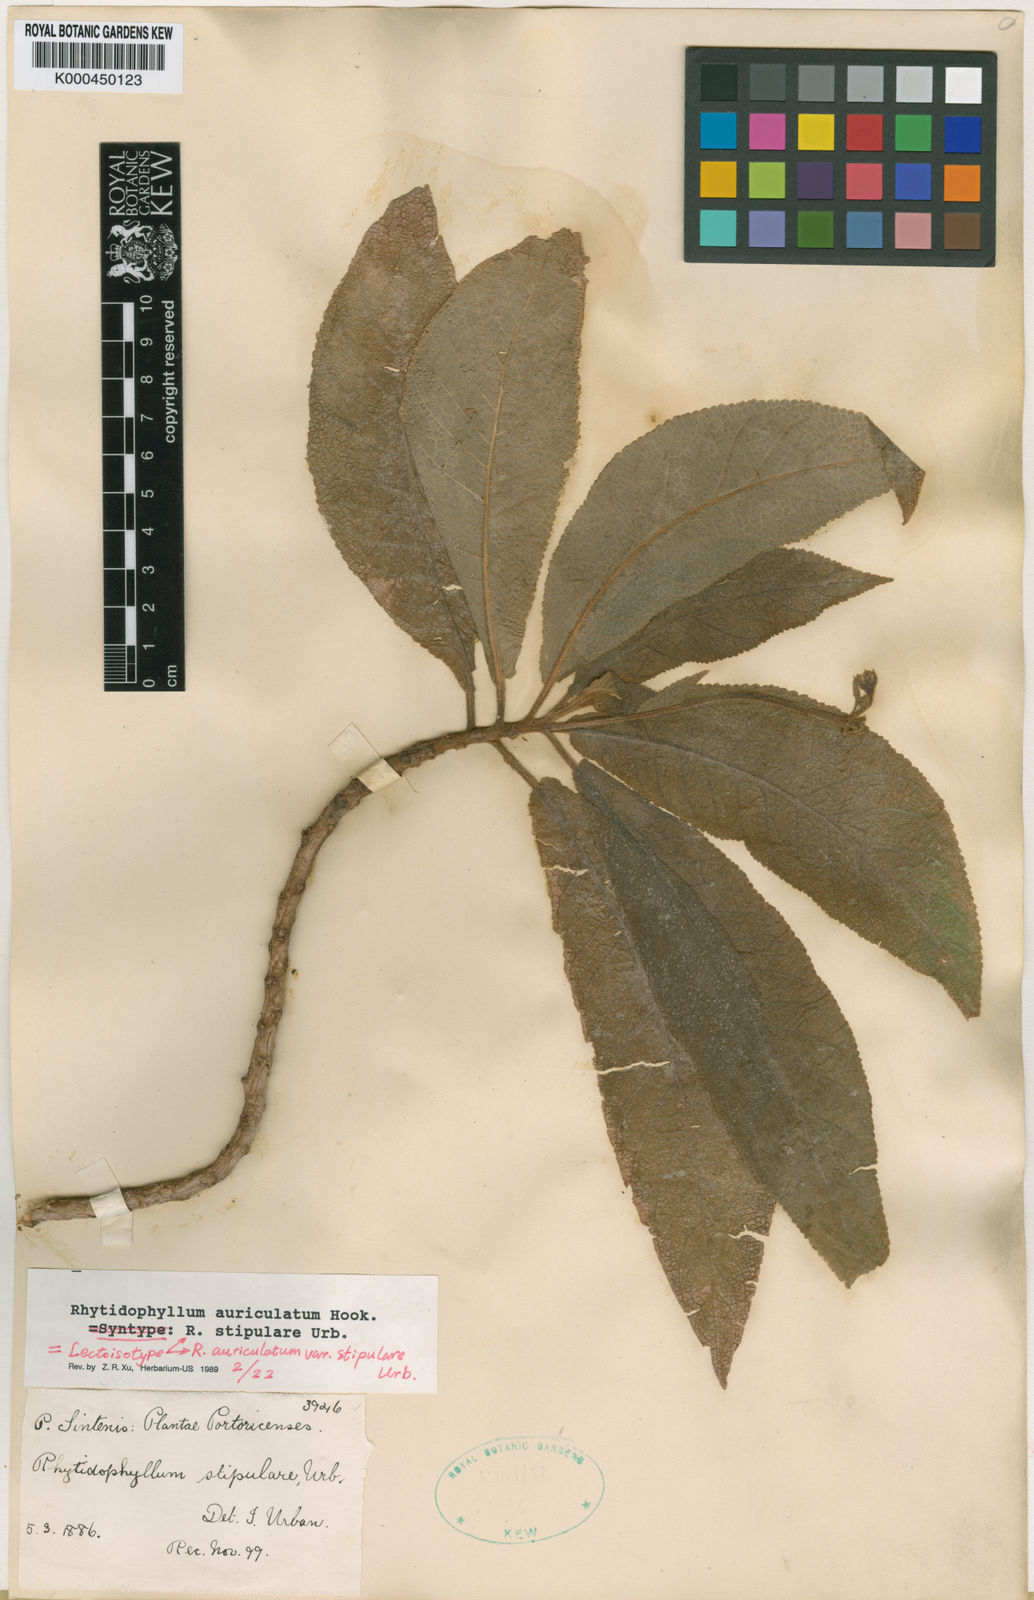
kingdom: Plantae
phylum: Tracheophyta
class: Magnoliopsida
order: Lamiales
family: Gesneriaceae
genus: Rhytidophyllum
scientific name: Rhytidophyllum auriculatum
